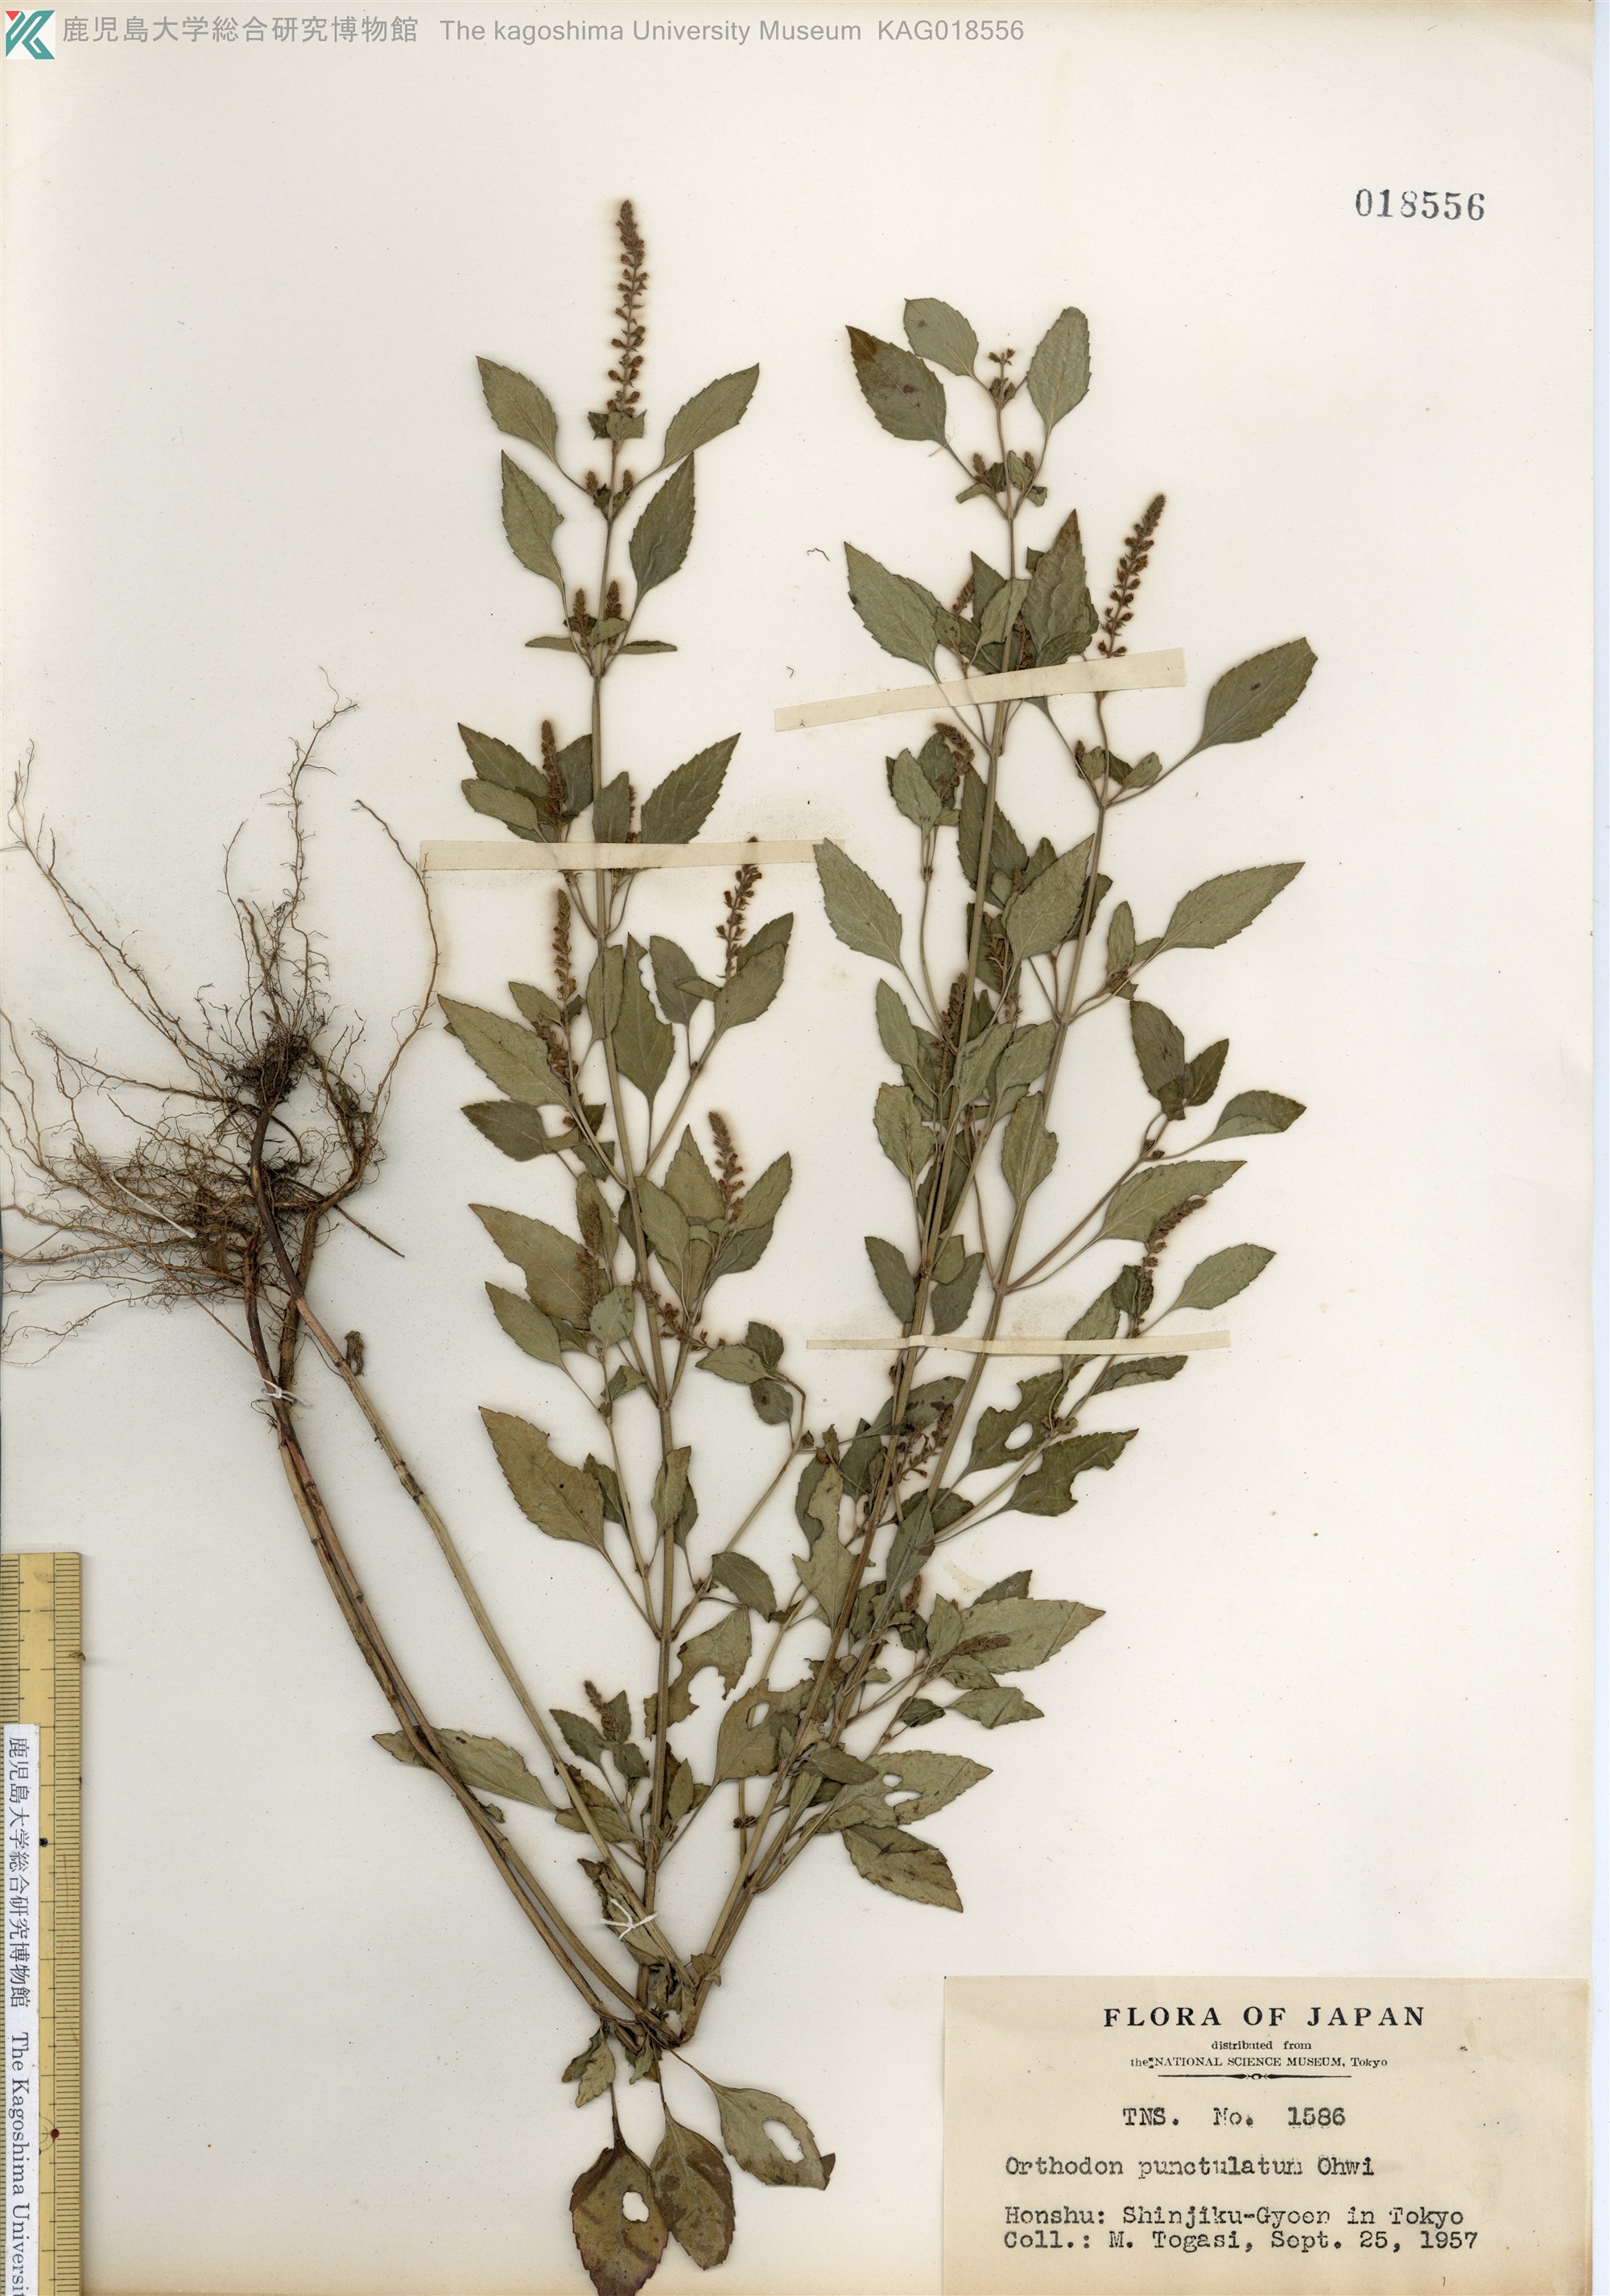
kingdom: Plantae
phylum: Tracheophyta
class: Magnoliopsida
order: Lamiales
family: Lamiaceae
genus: Mosla
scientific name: Mosla scabra
